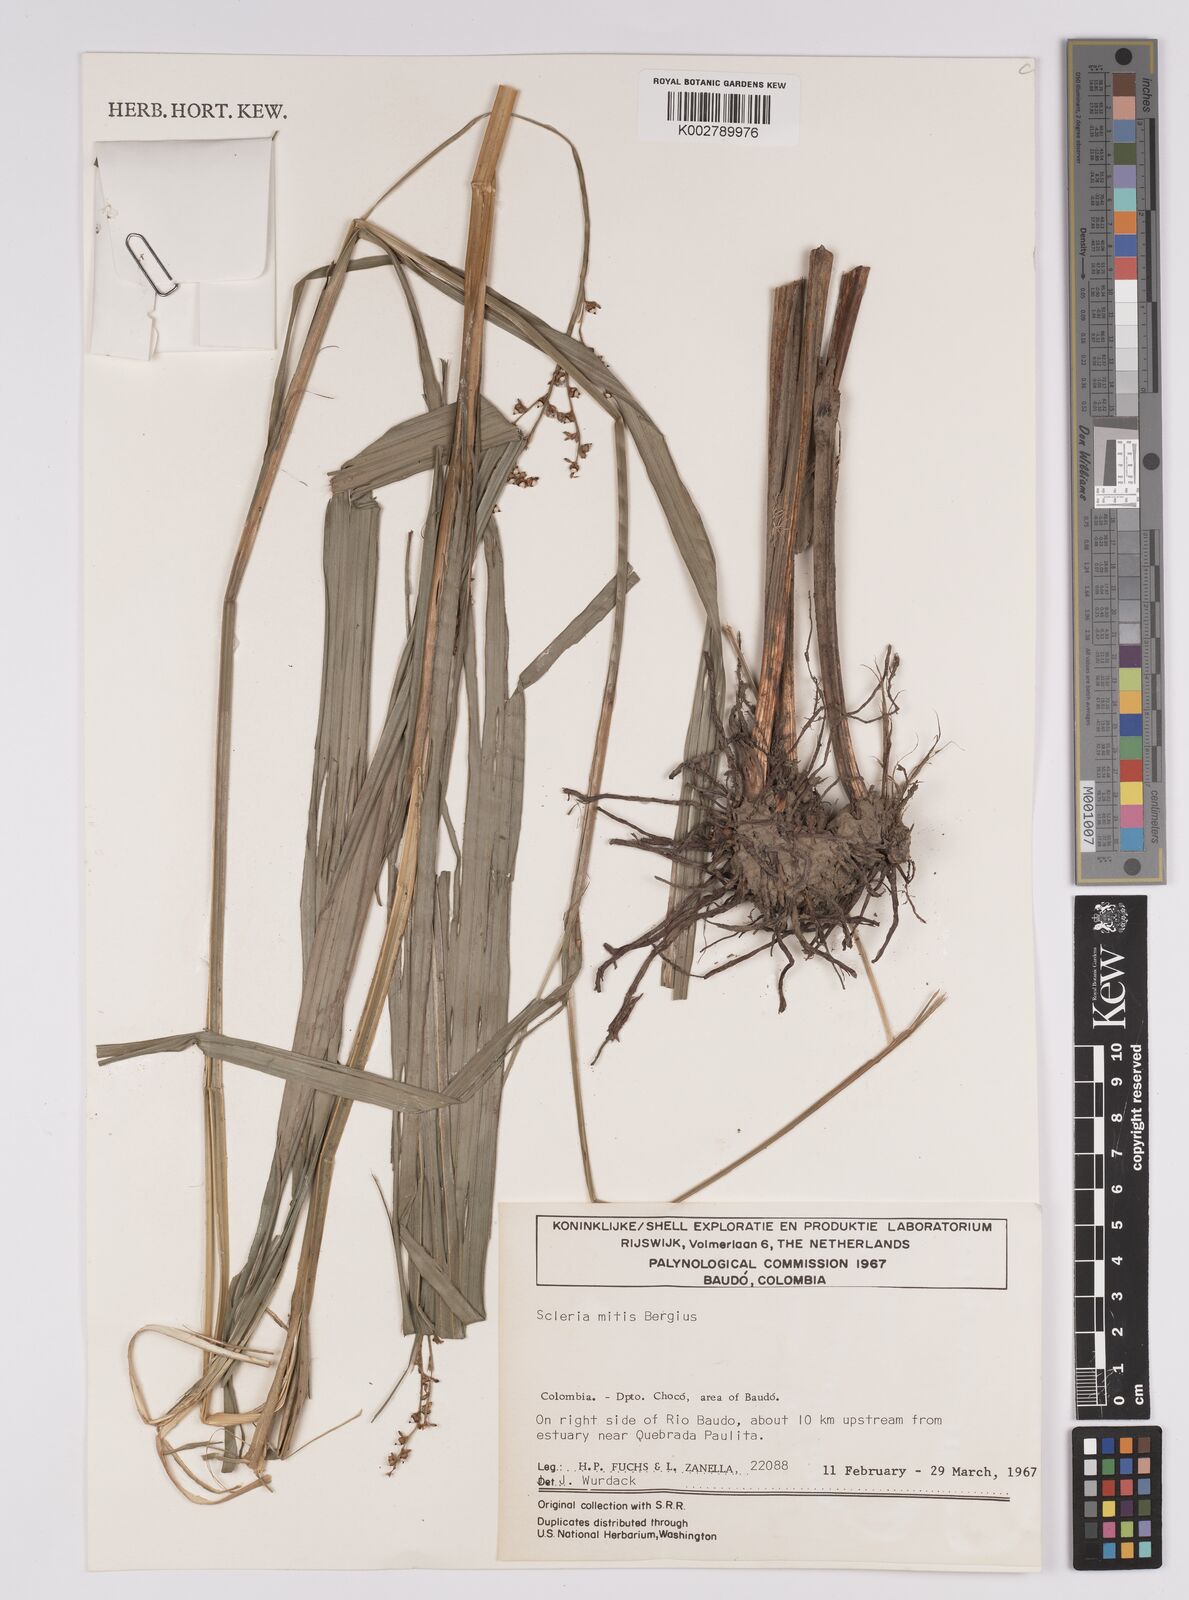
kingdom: Plantae
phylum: Tracheophyta
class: Liliopsida
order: Poales
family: Cyperaceae
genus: Scleria
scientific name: Scleria mitis
